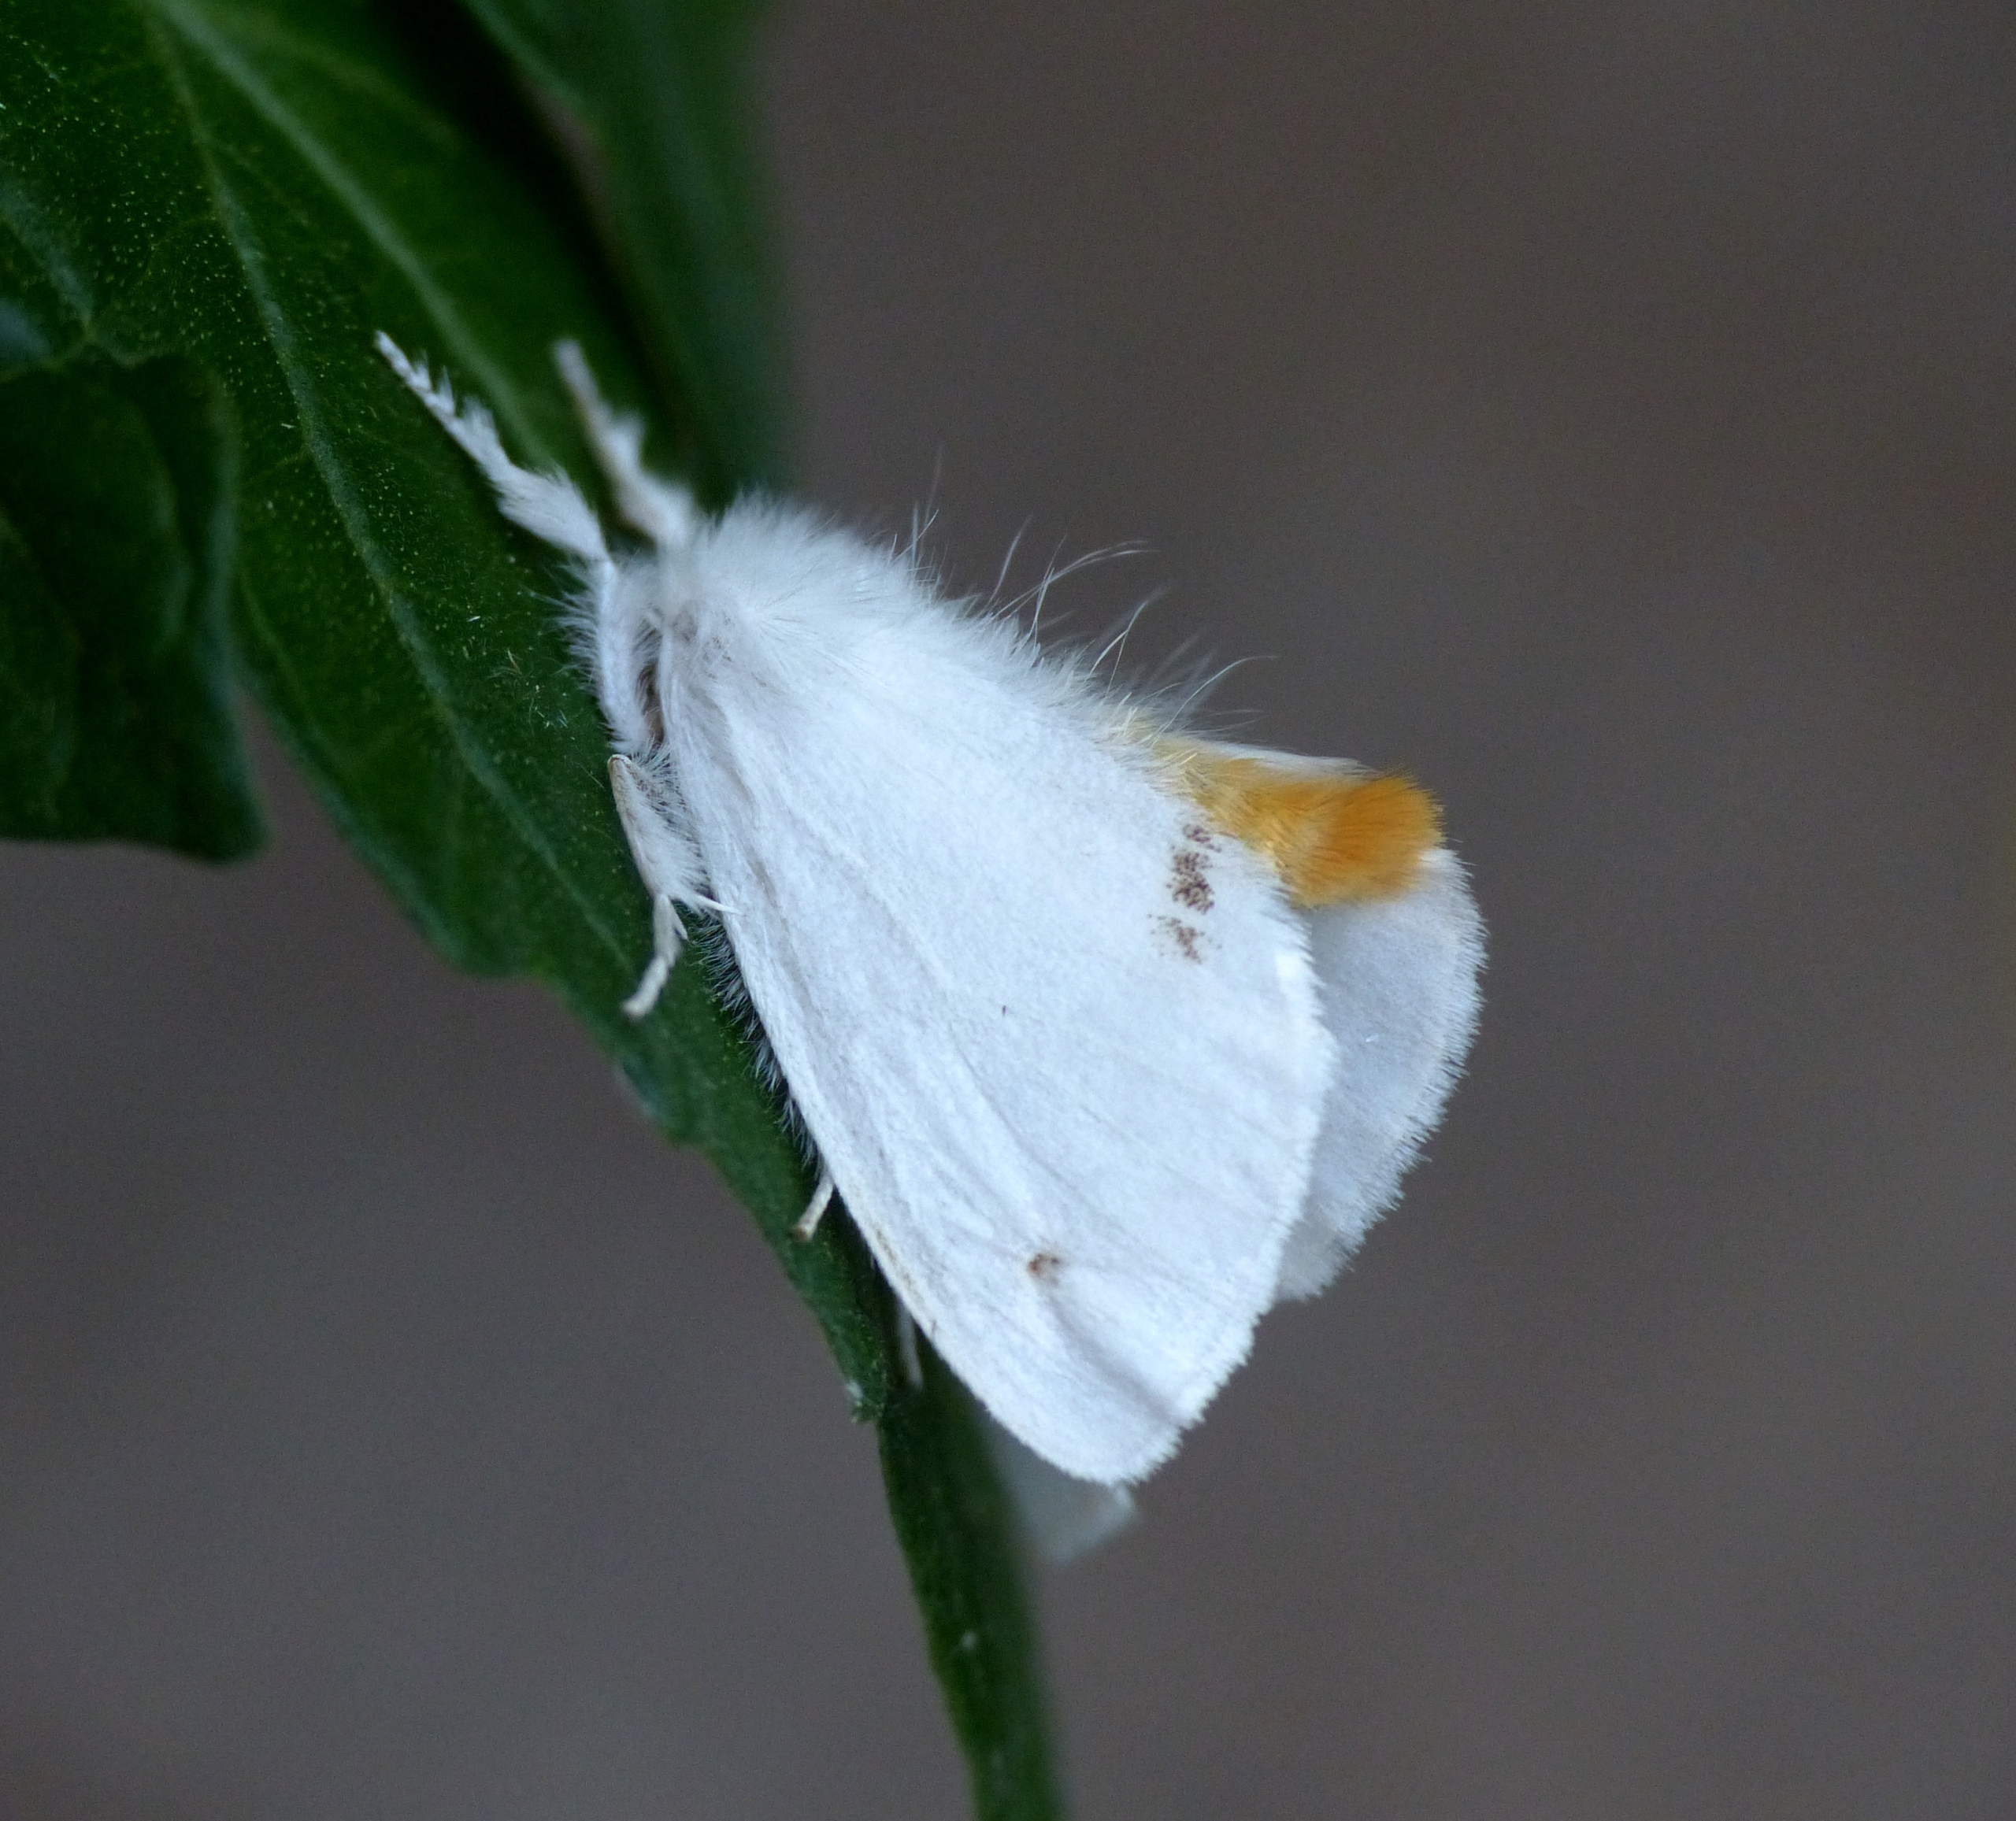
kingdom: Animalia
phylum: Arthropoda
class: Insecta
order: Lepidoptera
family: Erebidae
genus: Sphrageidus
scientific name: Sphrageidus similis
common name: Gulhale
